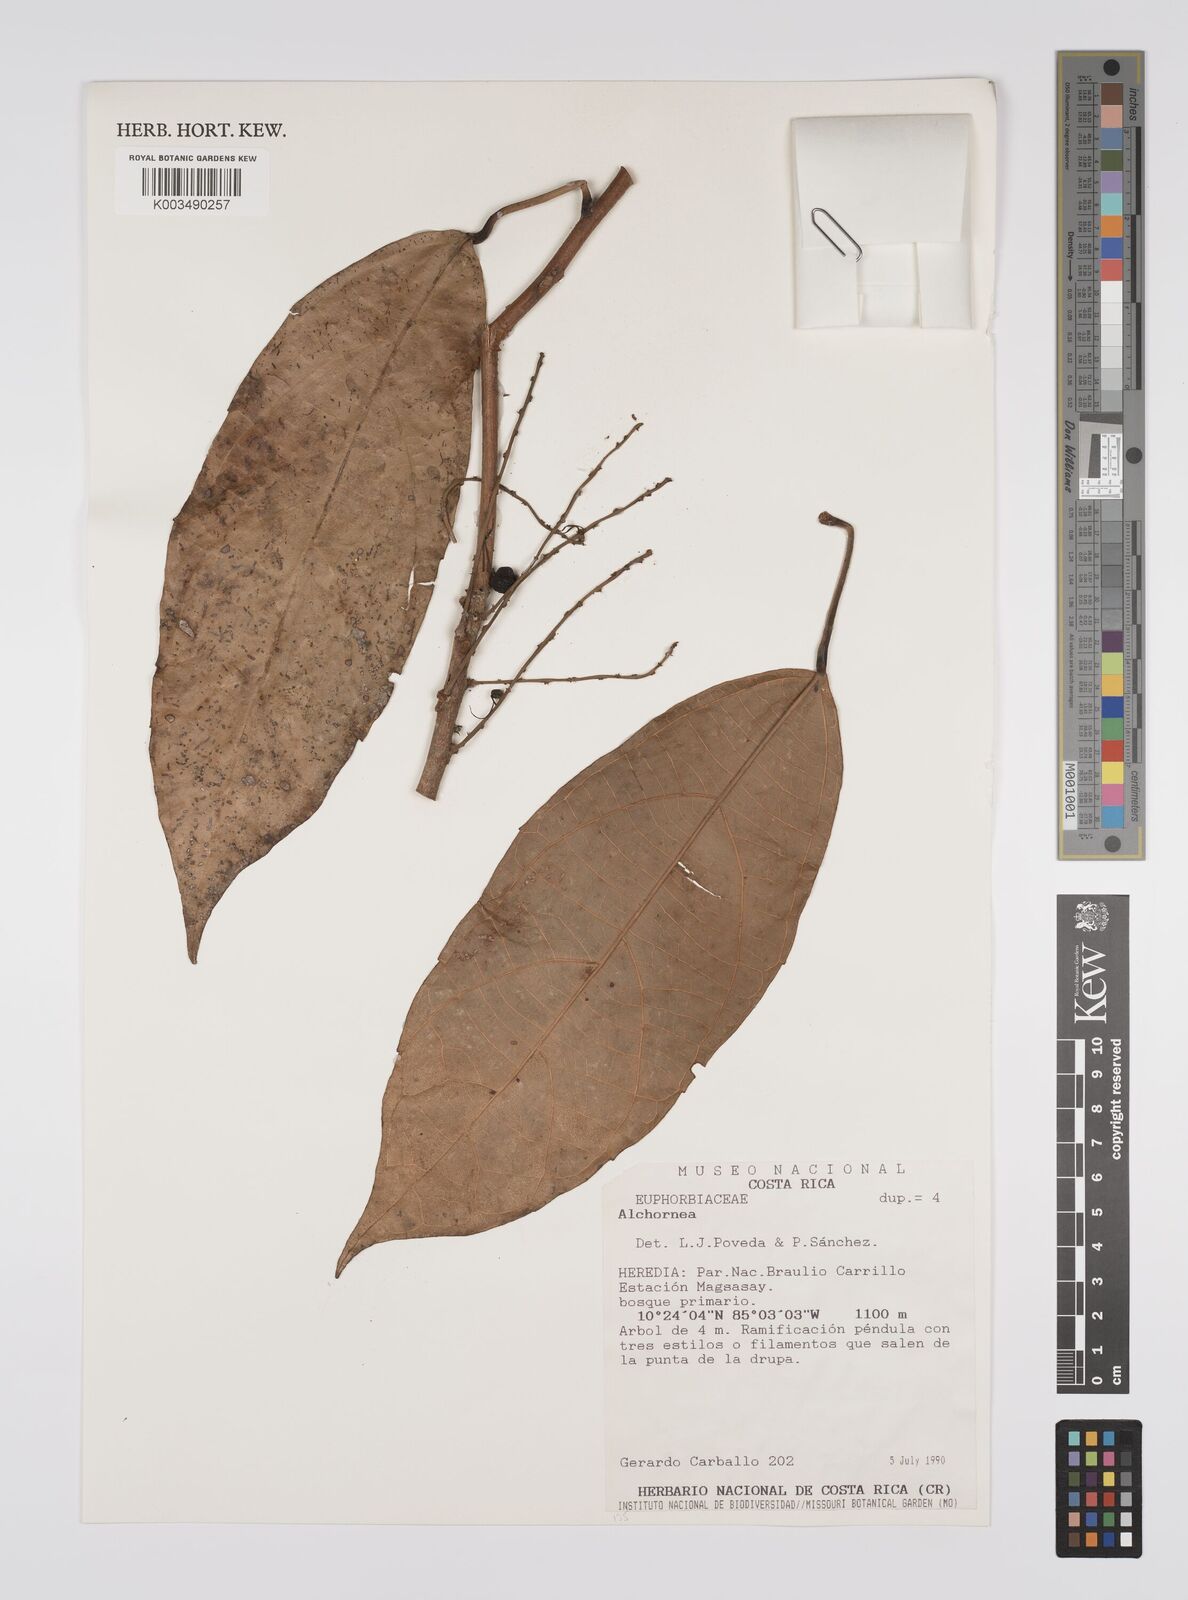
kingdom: Plantae
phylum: Tracheophyta
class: Magnoliopsida
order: Malpighiales
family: Euphorbiaceae
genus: Alchornea
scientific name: Alchornea
